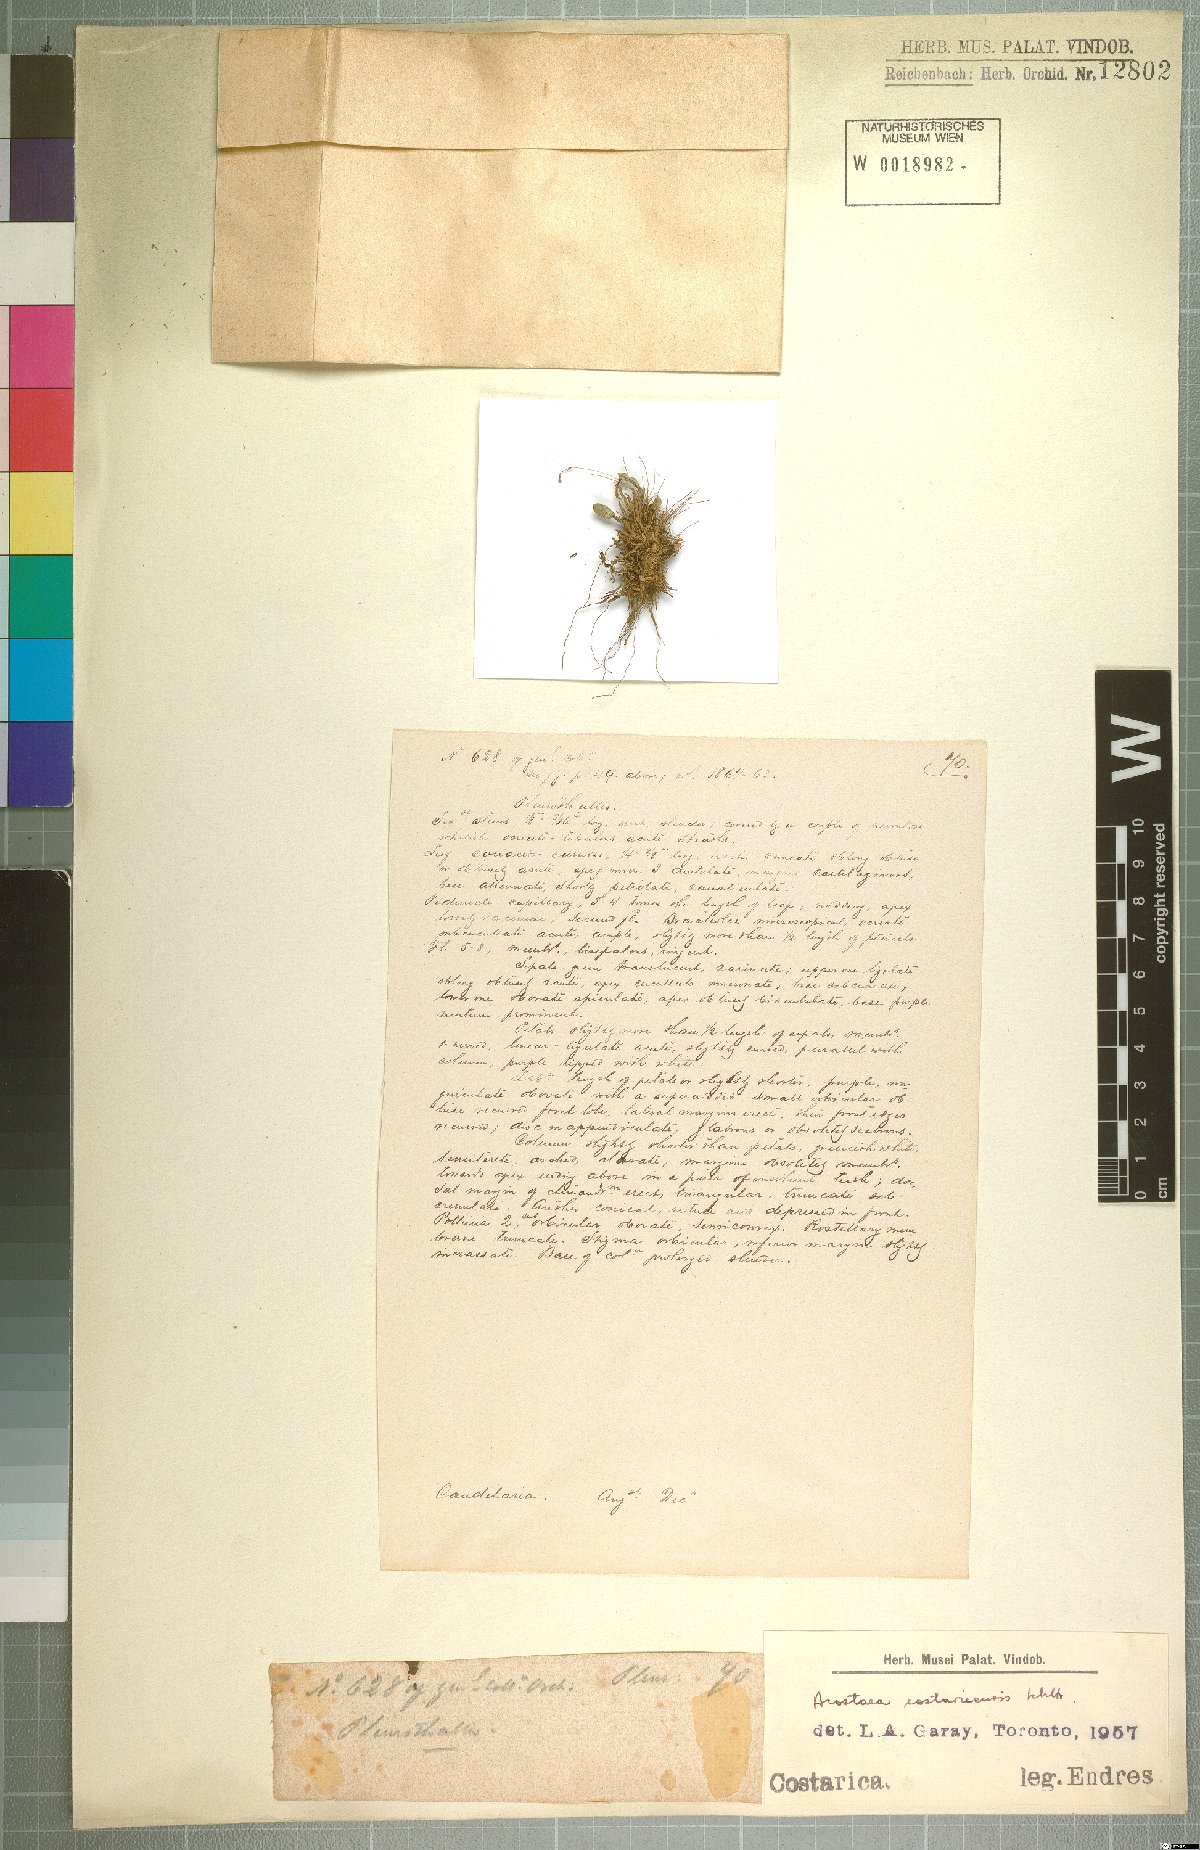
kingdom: Plantae
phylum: Tracheophyta
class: Liliopsida
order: Asparagales
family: Orchidaceae
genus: Specklinia
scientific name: Specklinia colombiana
